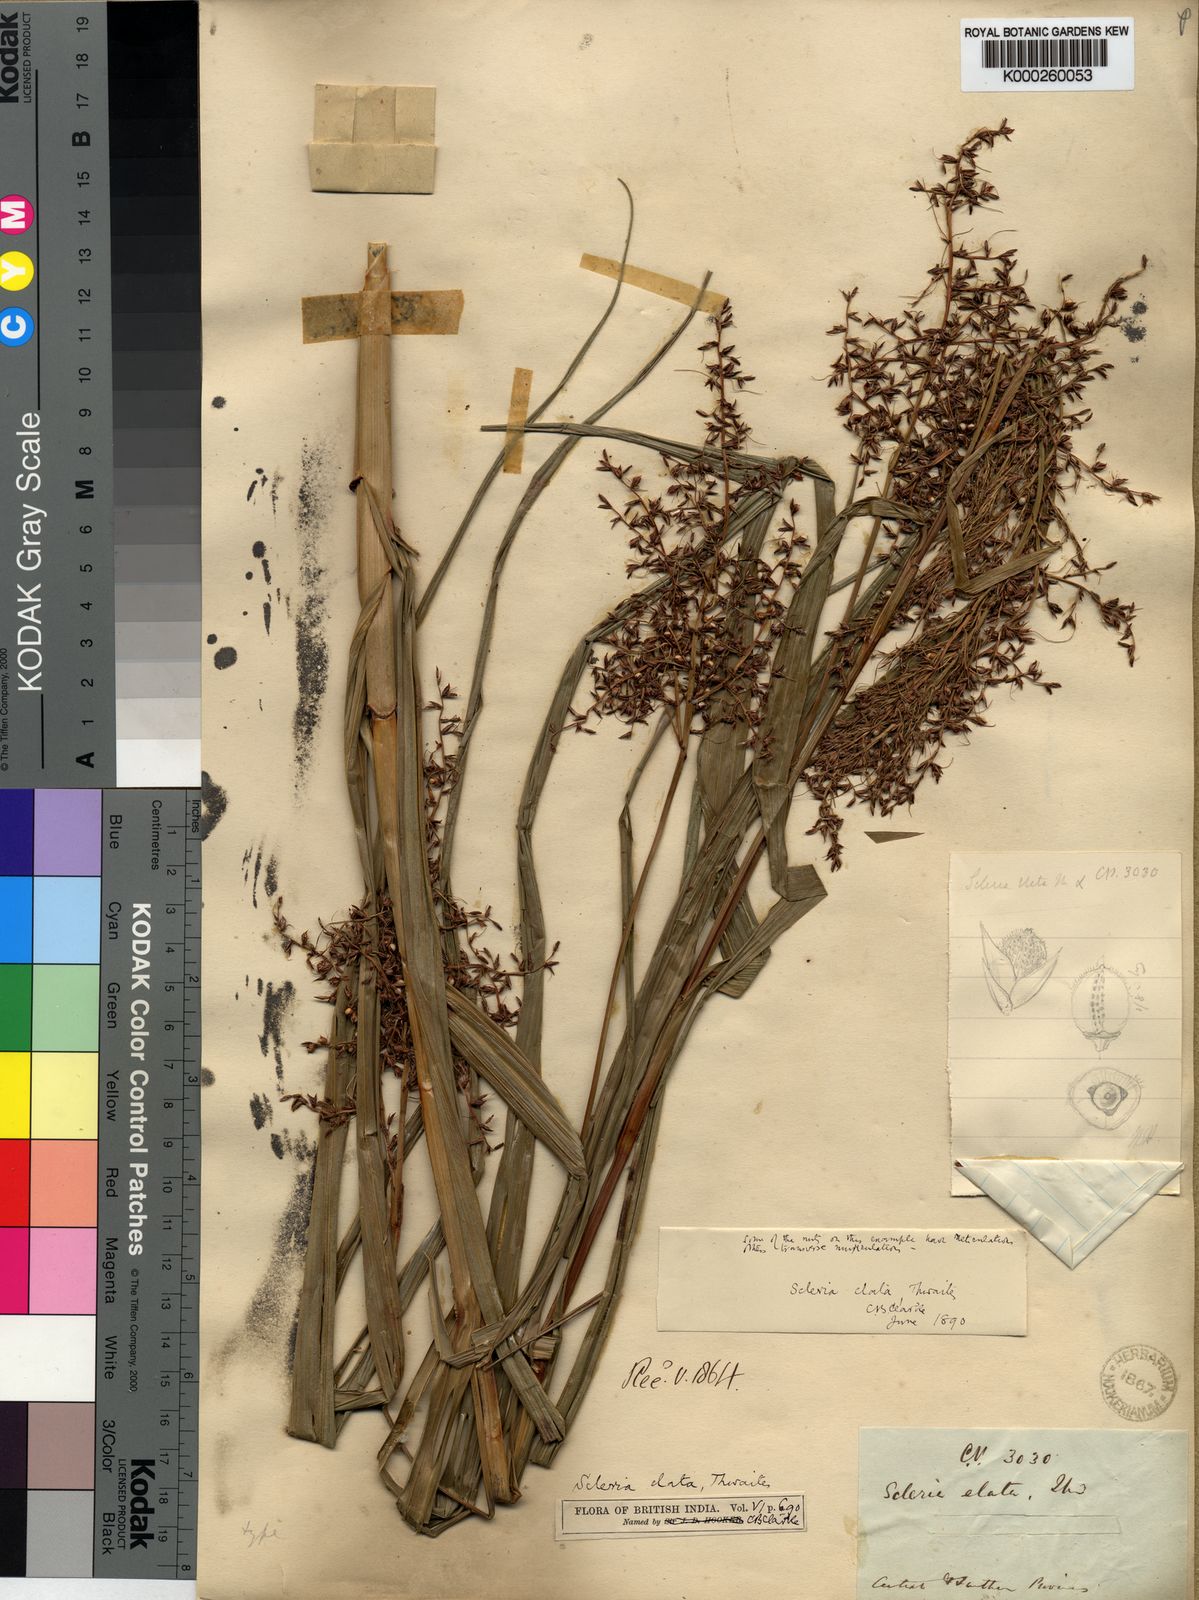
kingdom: Plantae
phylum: Tracheophyta
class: Liliopsida
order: Poales
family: Cyperaceae
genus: Scleria
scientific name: Scleria terrestris
